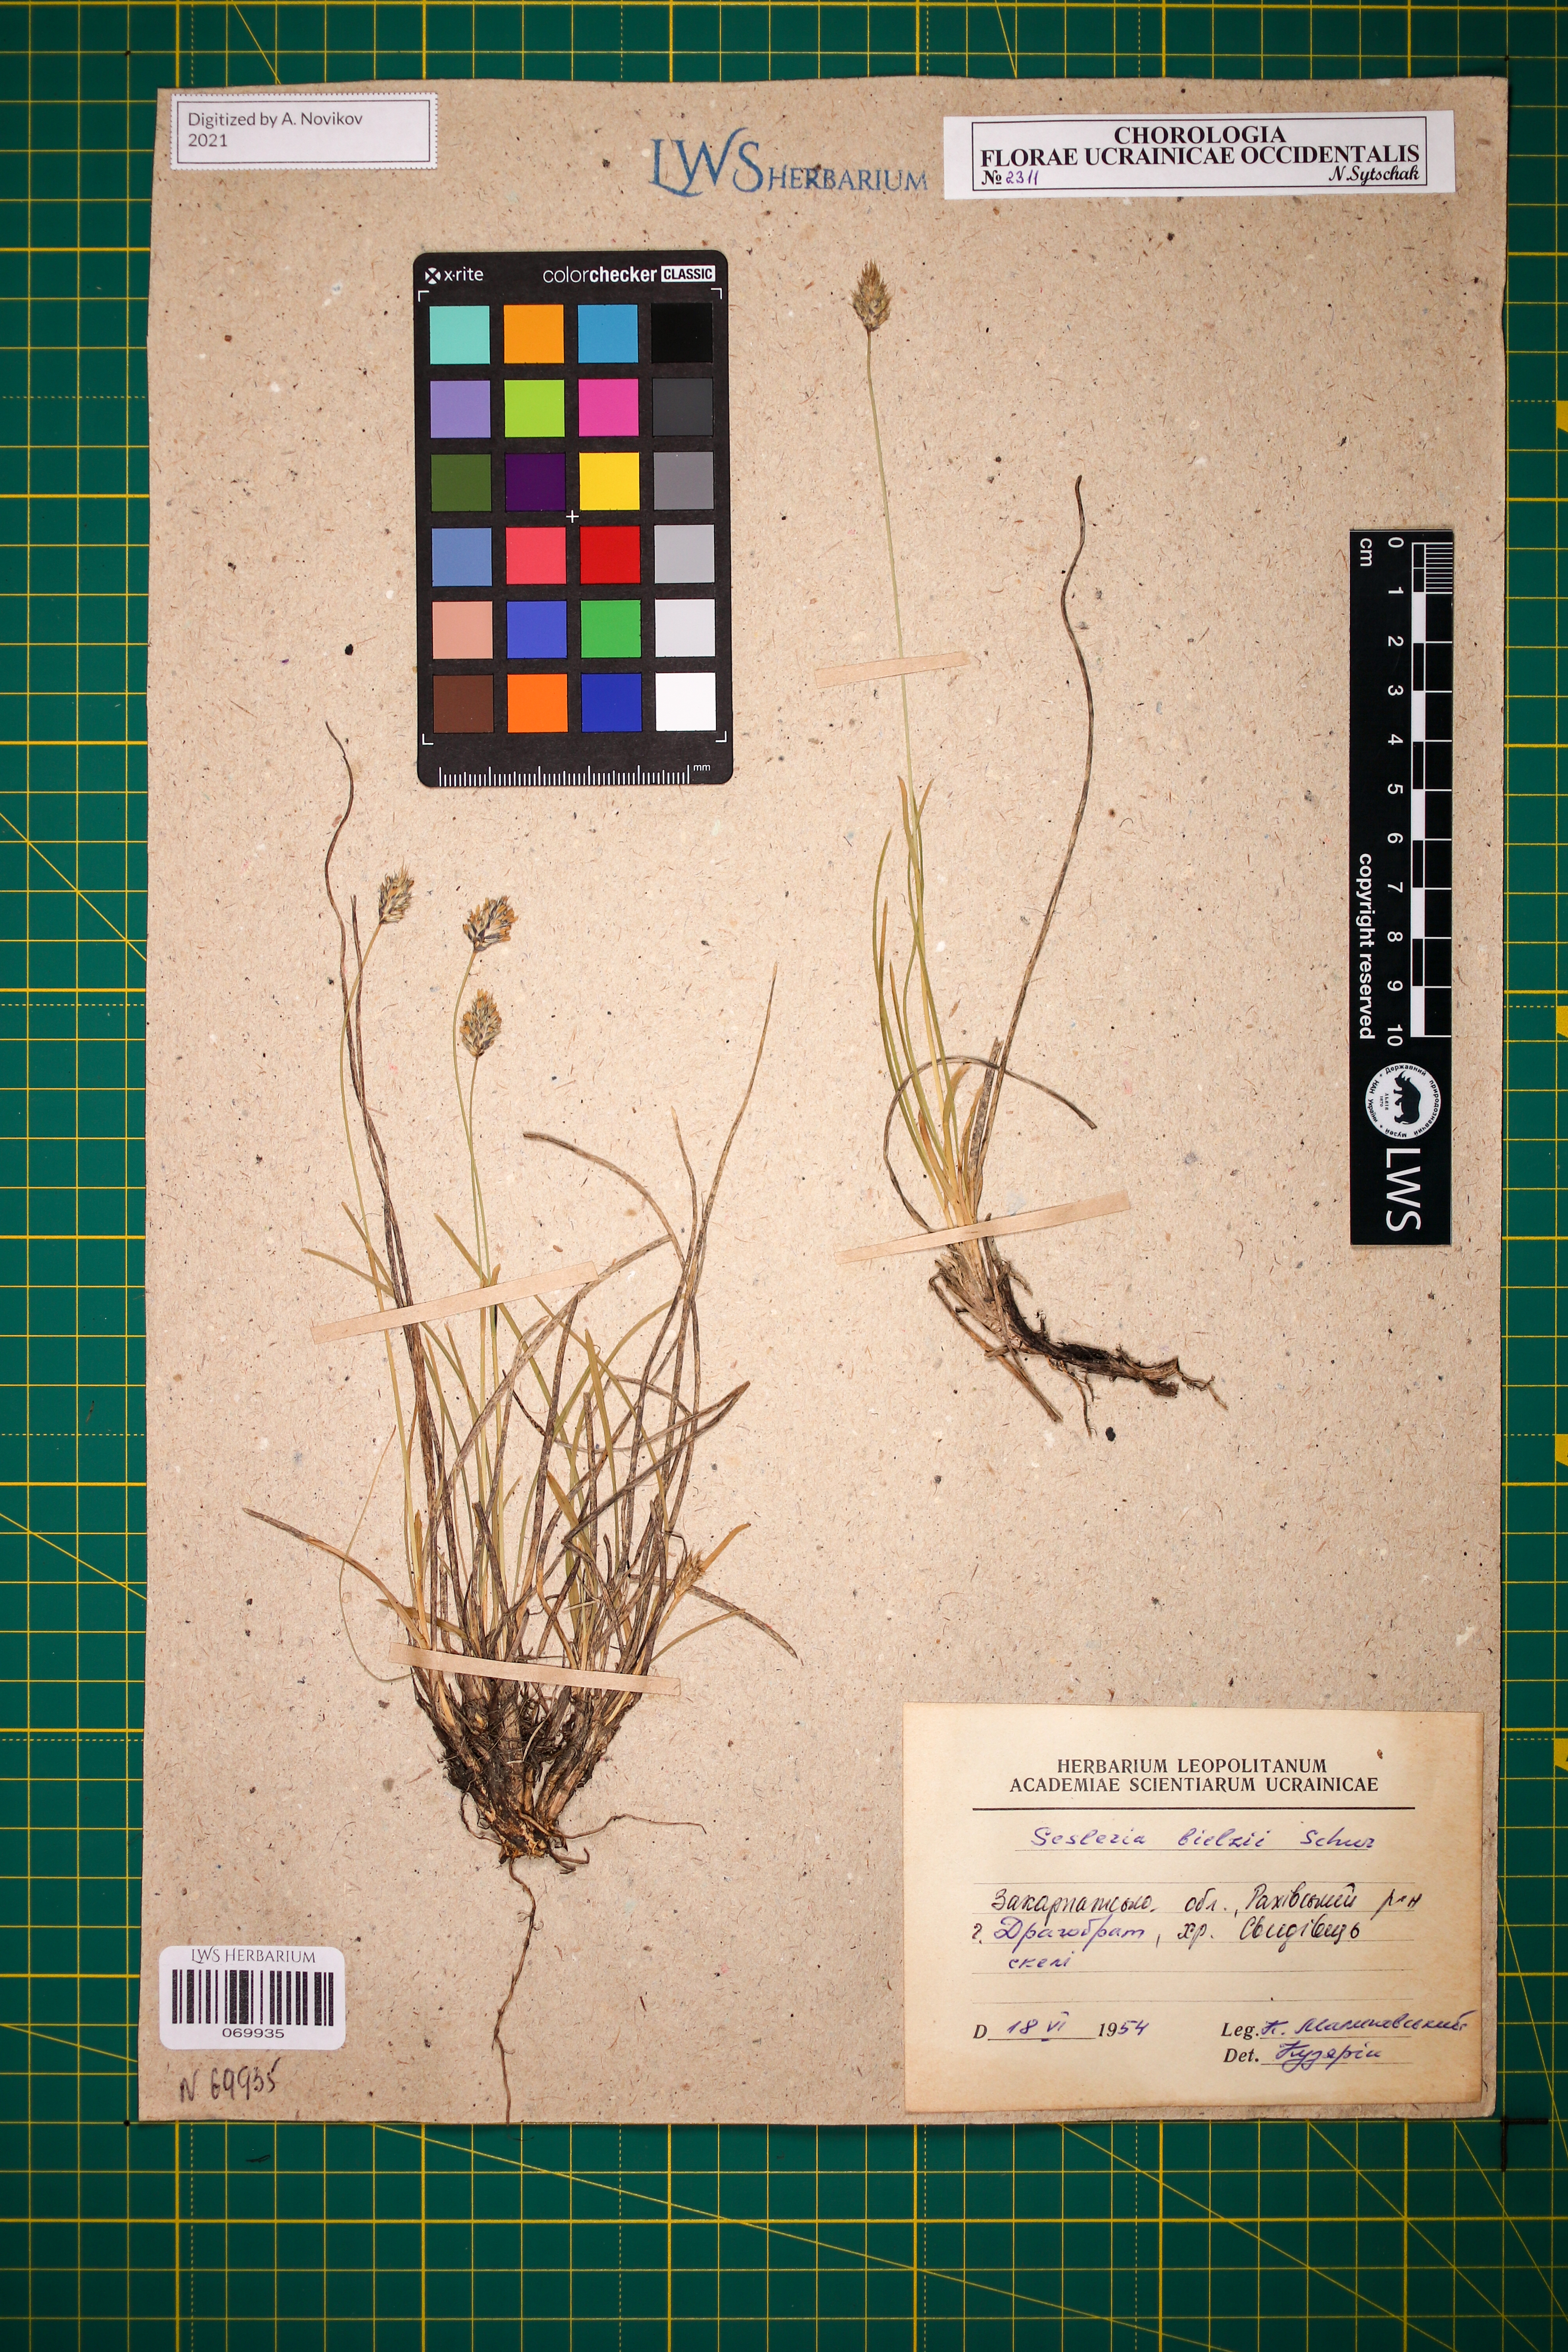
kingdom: Plantae
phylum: Tracheophyta
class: Liliopsida
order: Poales
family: Poaceae
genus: Sesleria
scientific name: Sesleria bielzii
